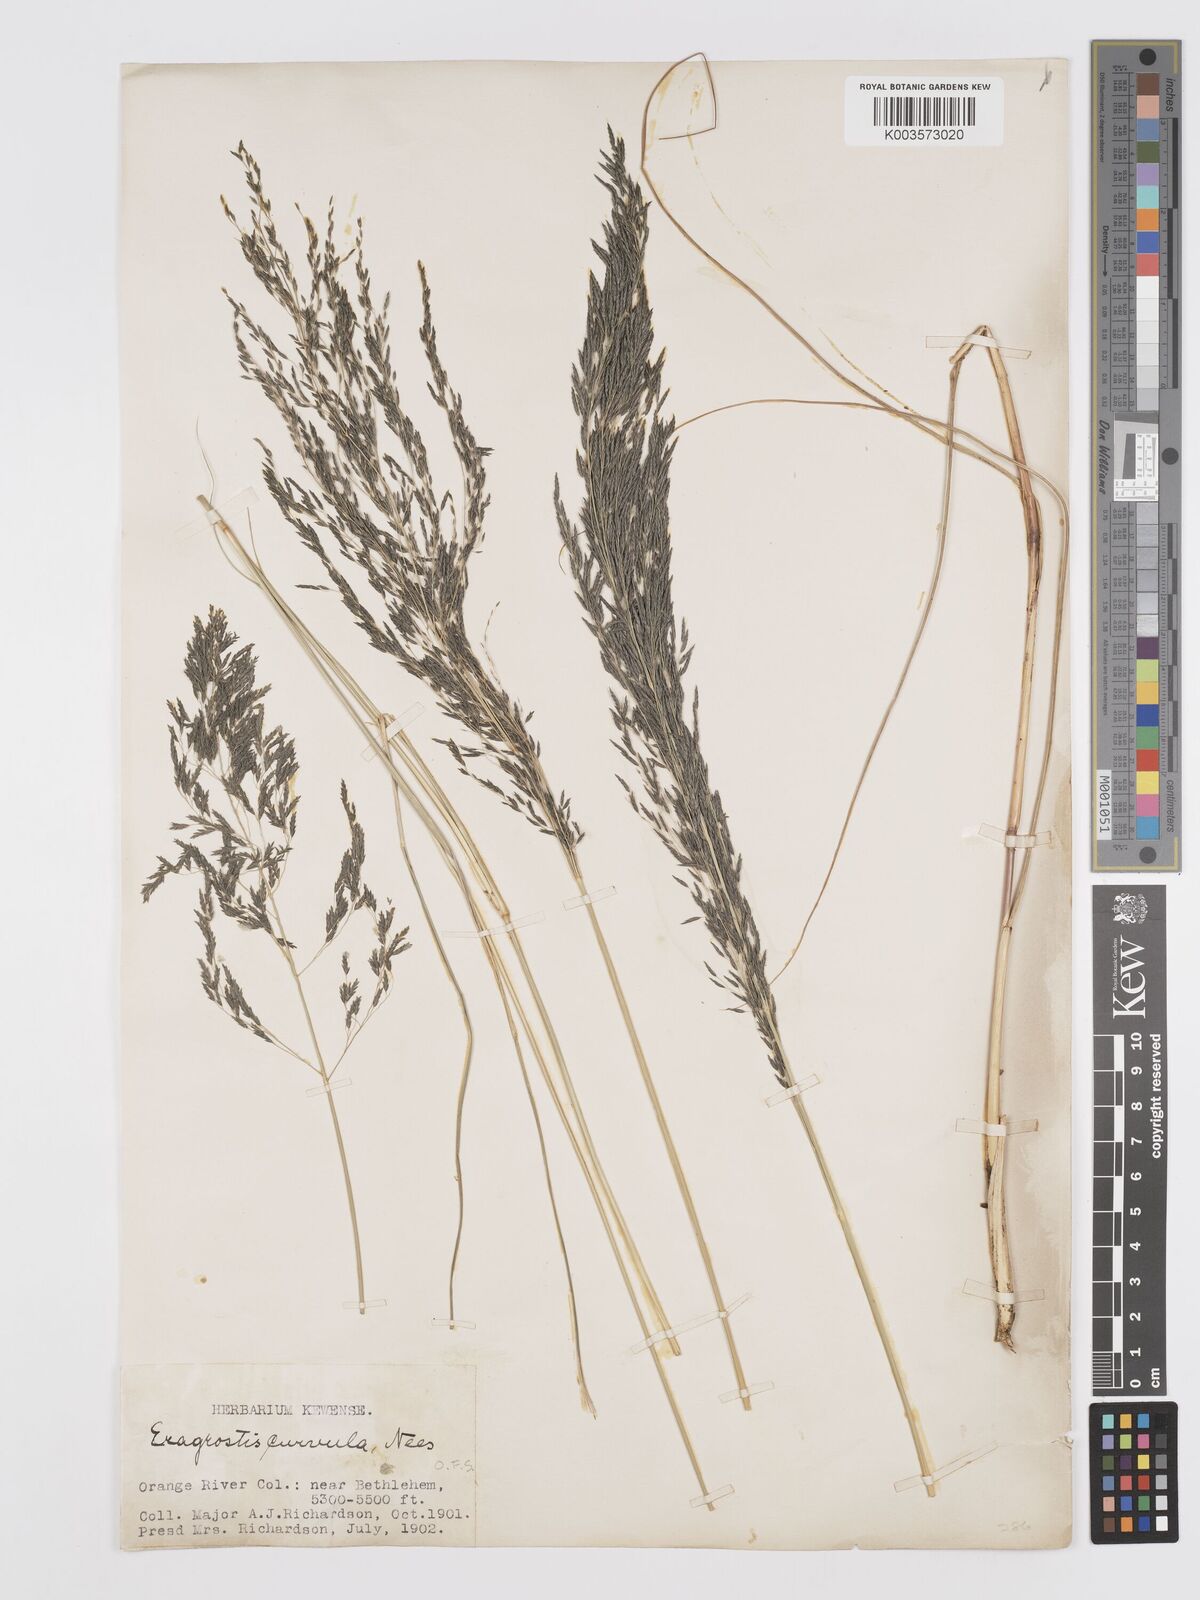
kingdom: Plantae
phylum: Tracheophyta
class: Liliopsida
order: Poales
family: Poaceae
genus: Eragrostis
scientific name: Eragrostis curvula
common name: African love-grass
